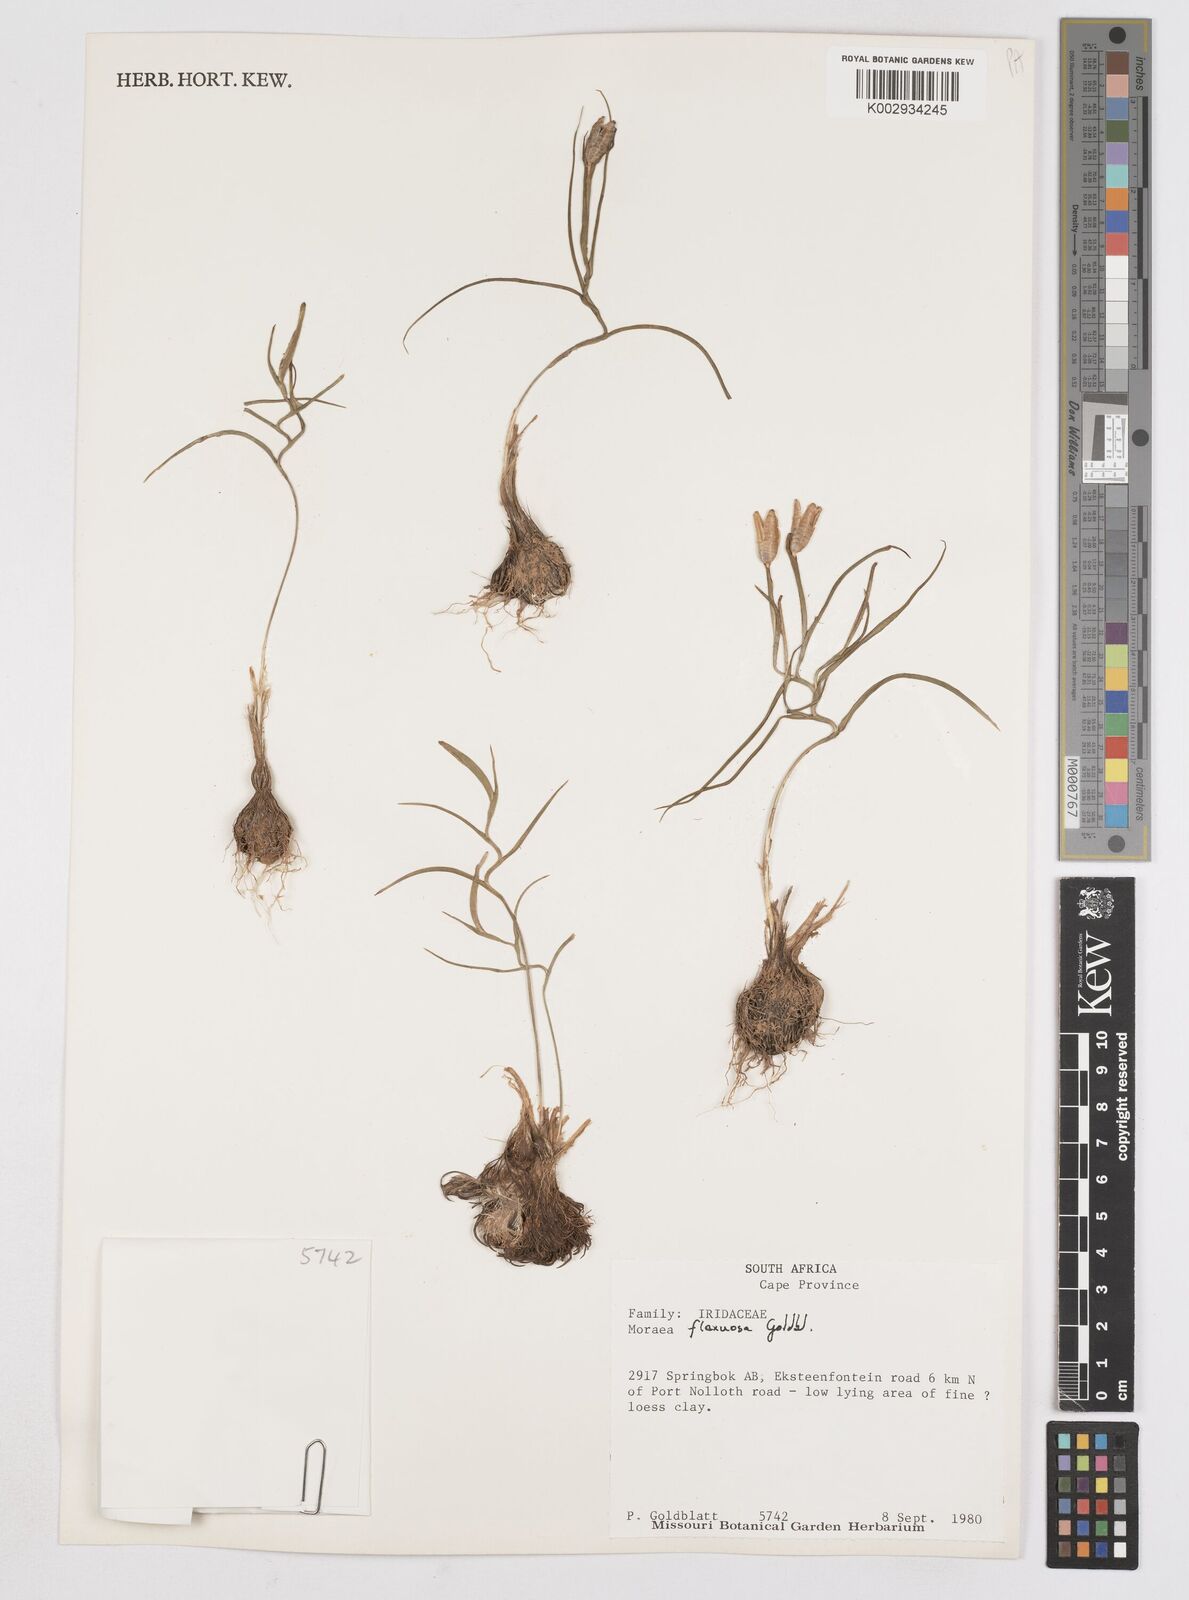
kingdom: Plantae
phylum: Tracheophyta
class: Liliopsida
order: Asparagales
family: Iridaceae
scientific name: Iridaceae
